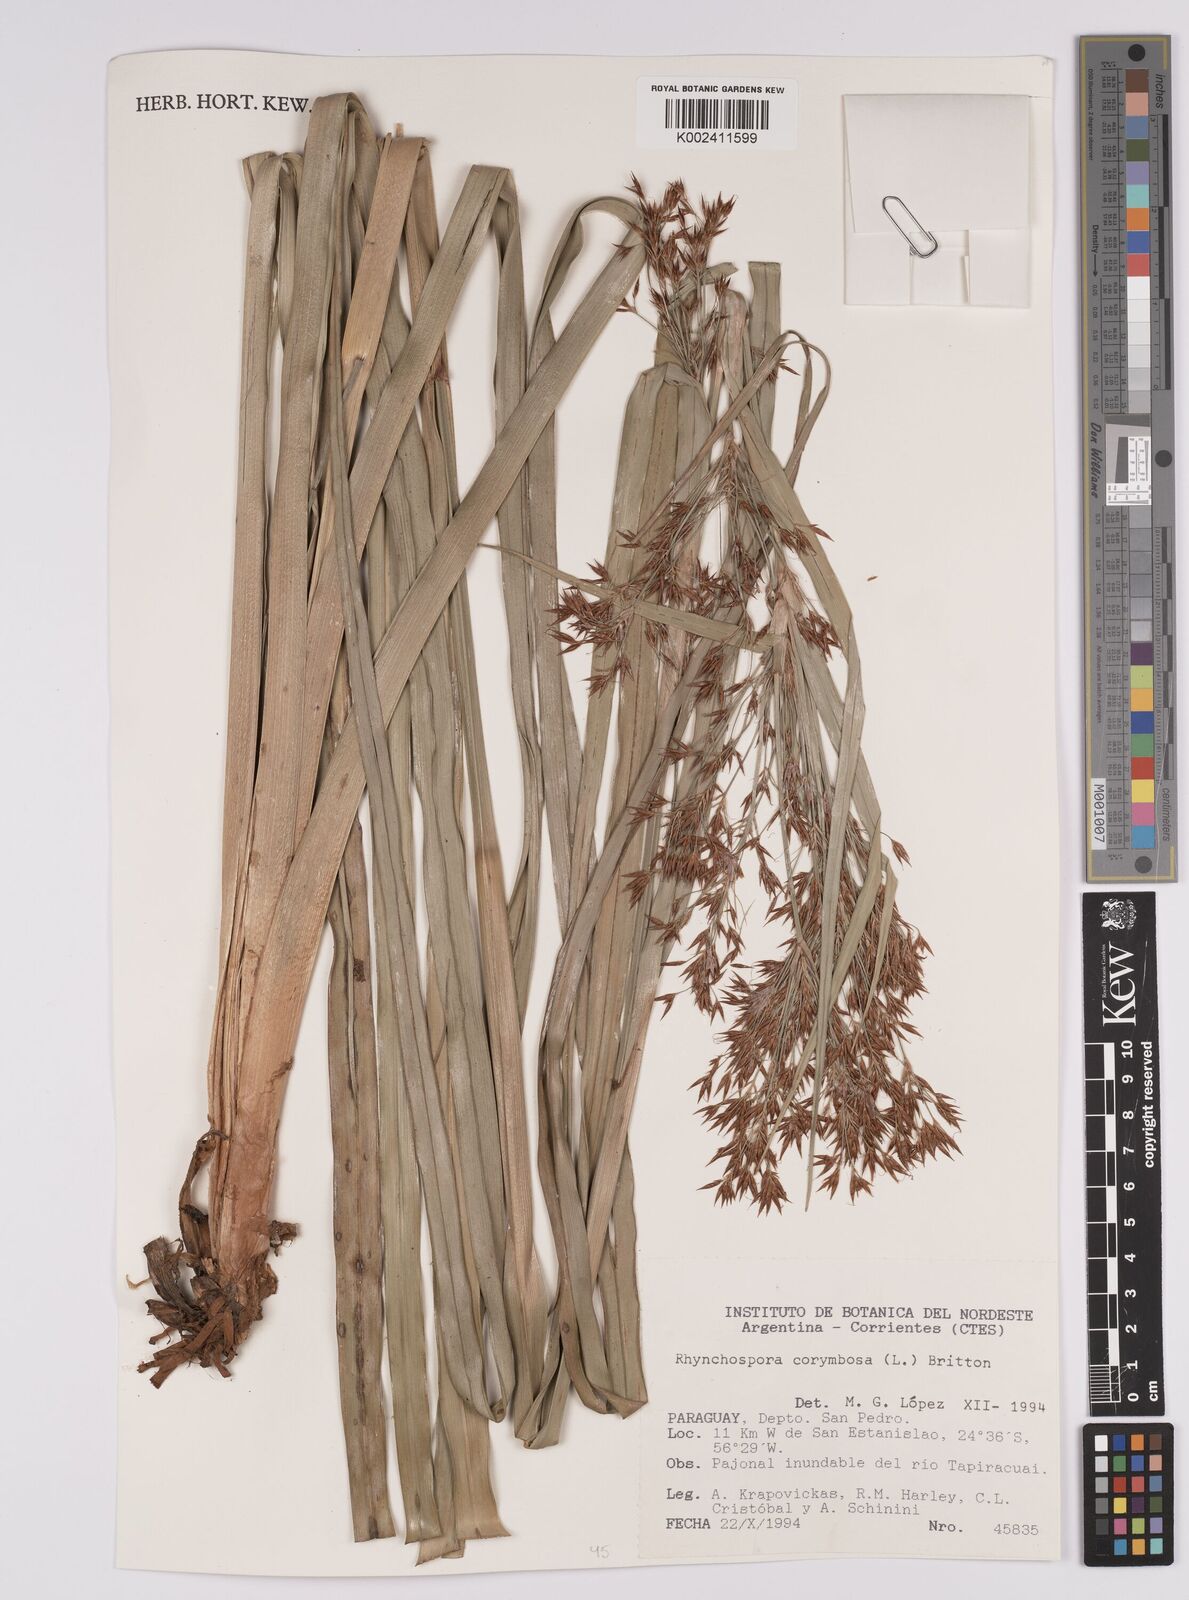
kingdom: Plantae
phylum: Tracheophyta
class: Liliopsida
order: Poales
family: Cyperaceae
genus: Rhynchospora
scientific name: Rhynchospora corymbosa
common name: Golden beak sedge
